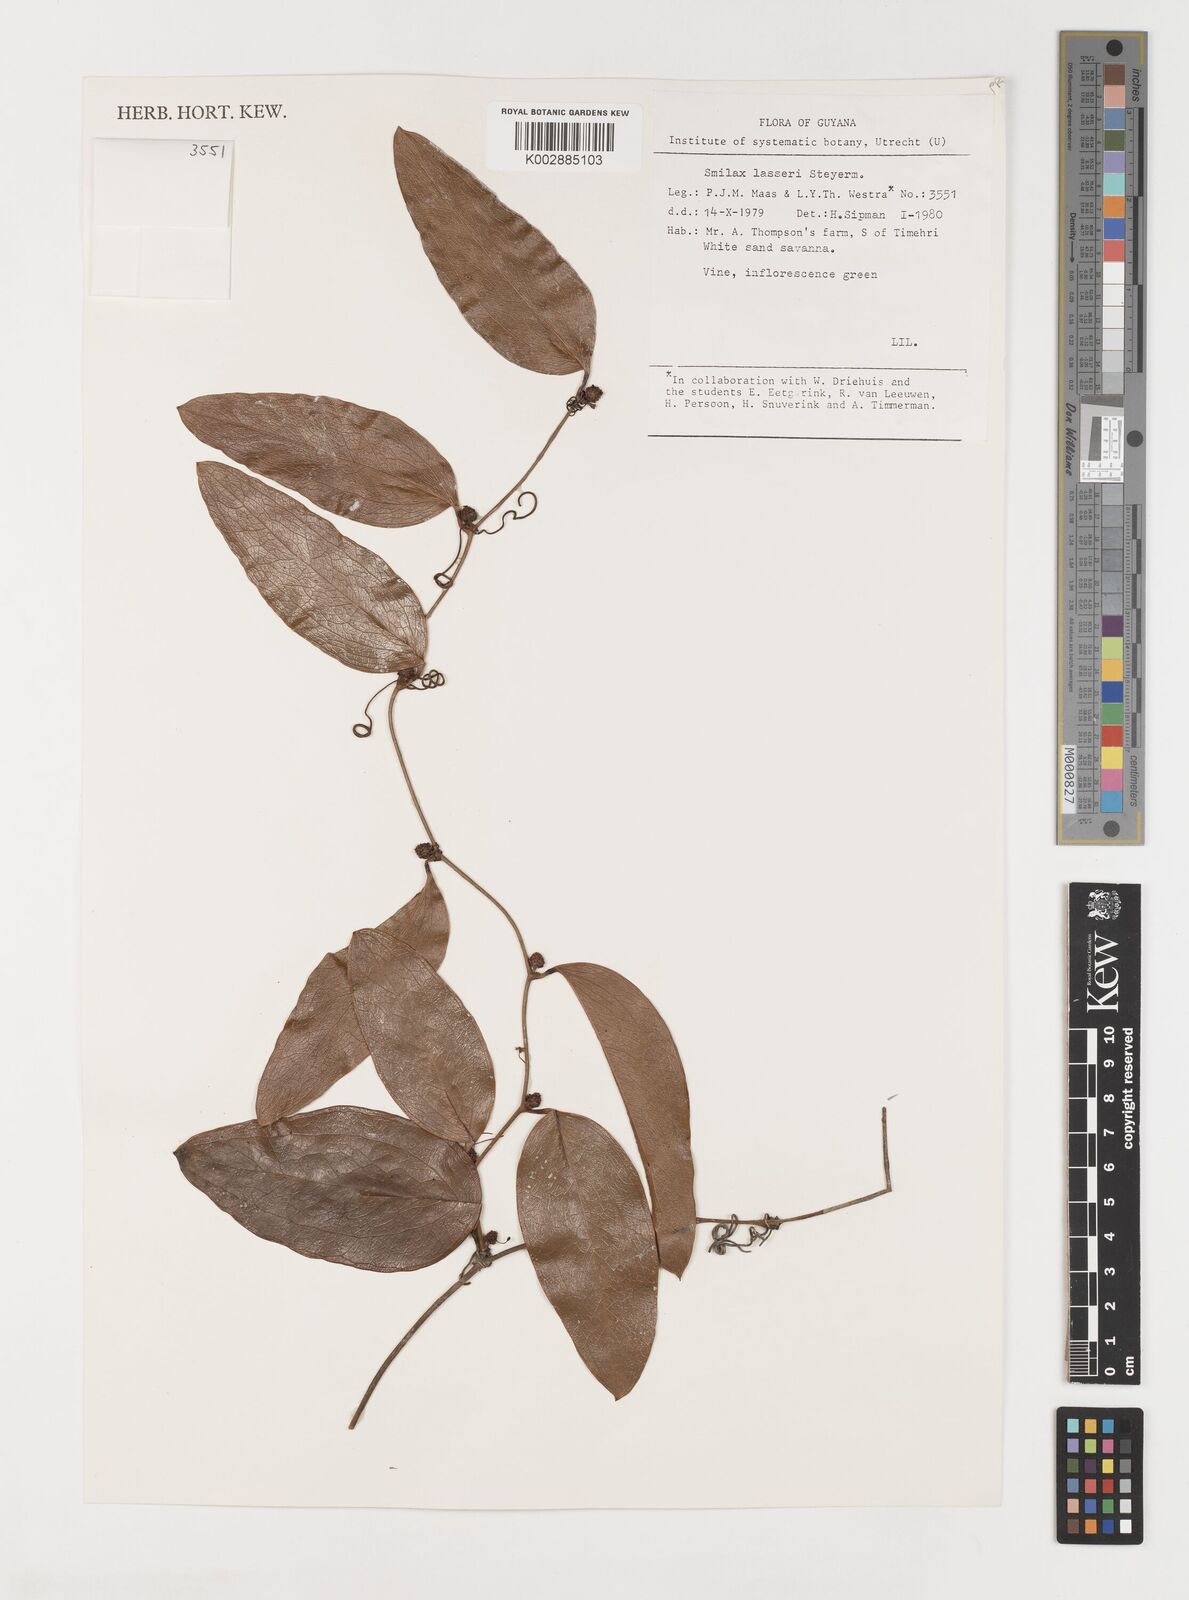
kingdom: Plantae
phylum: Tracheophyta
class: Liliopsida
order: Liliales
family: Smilacaceae
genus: Smilax
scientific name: Smilax domingensis
